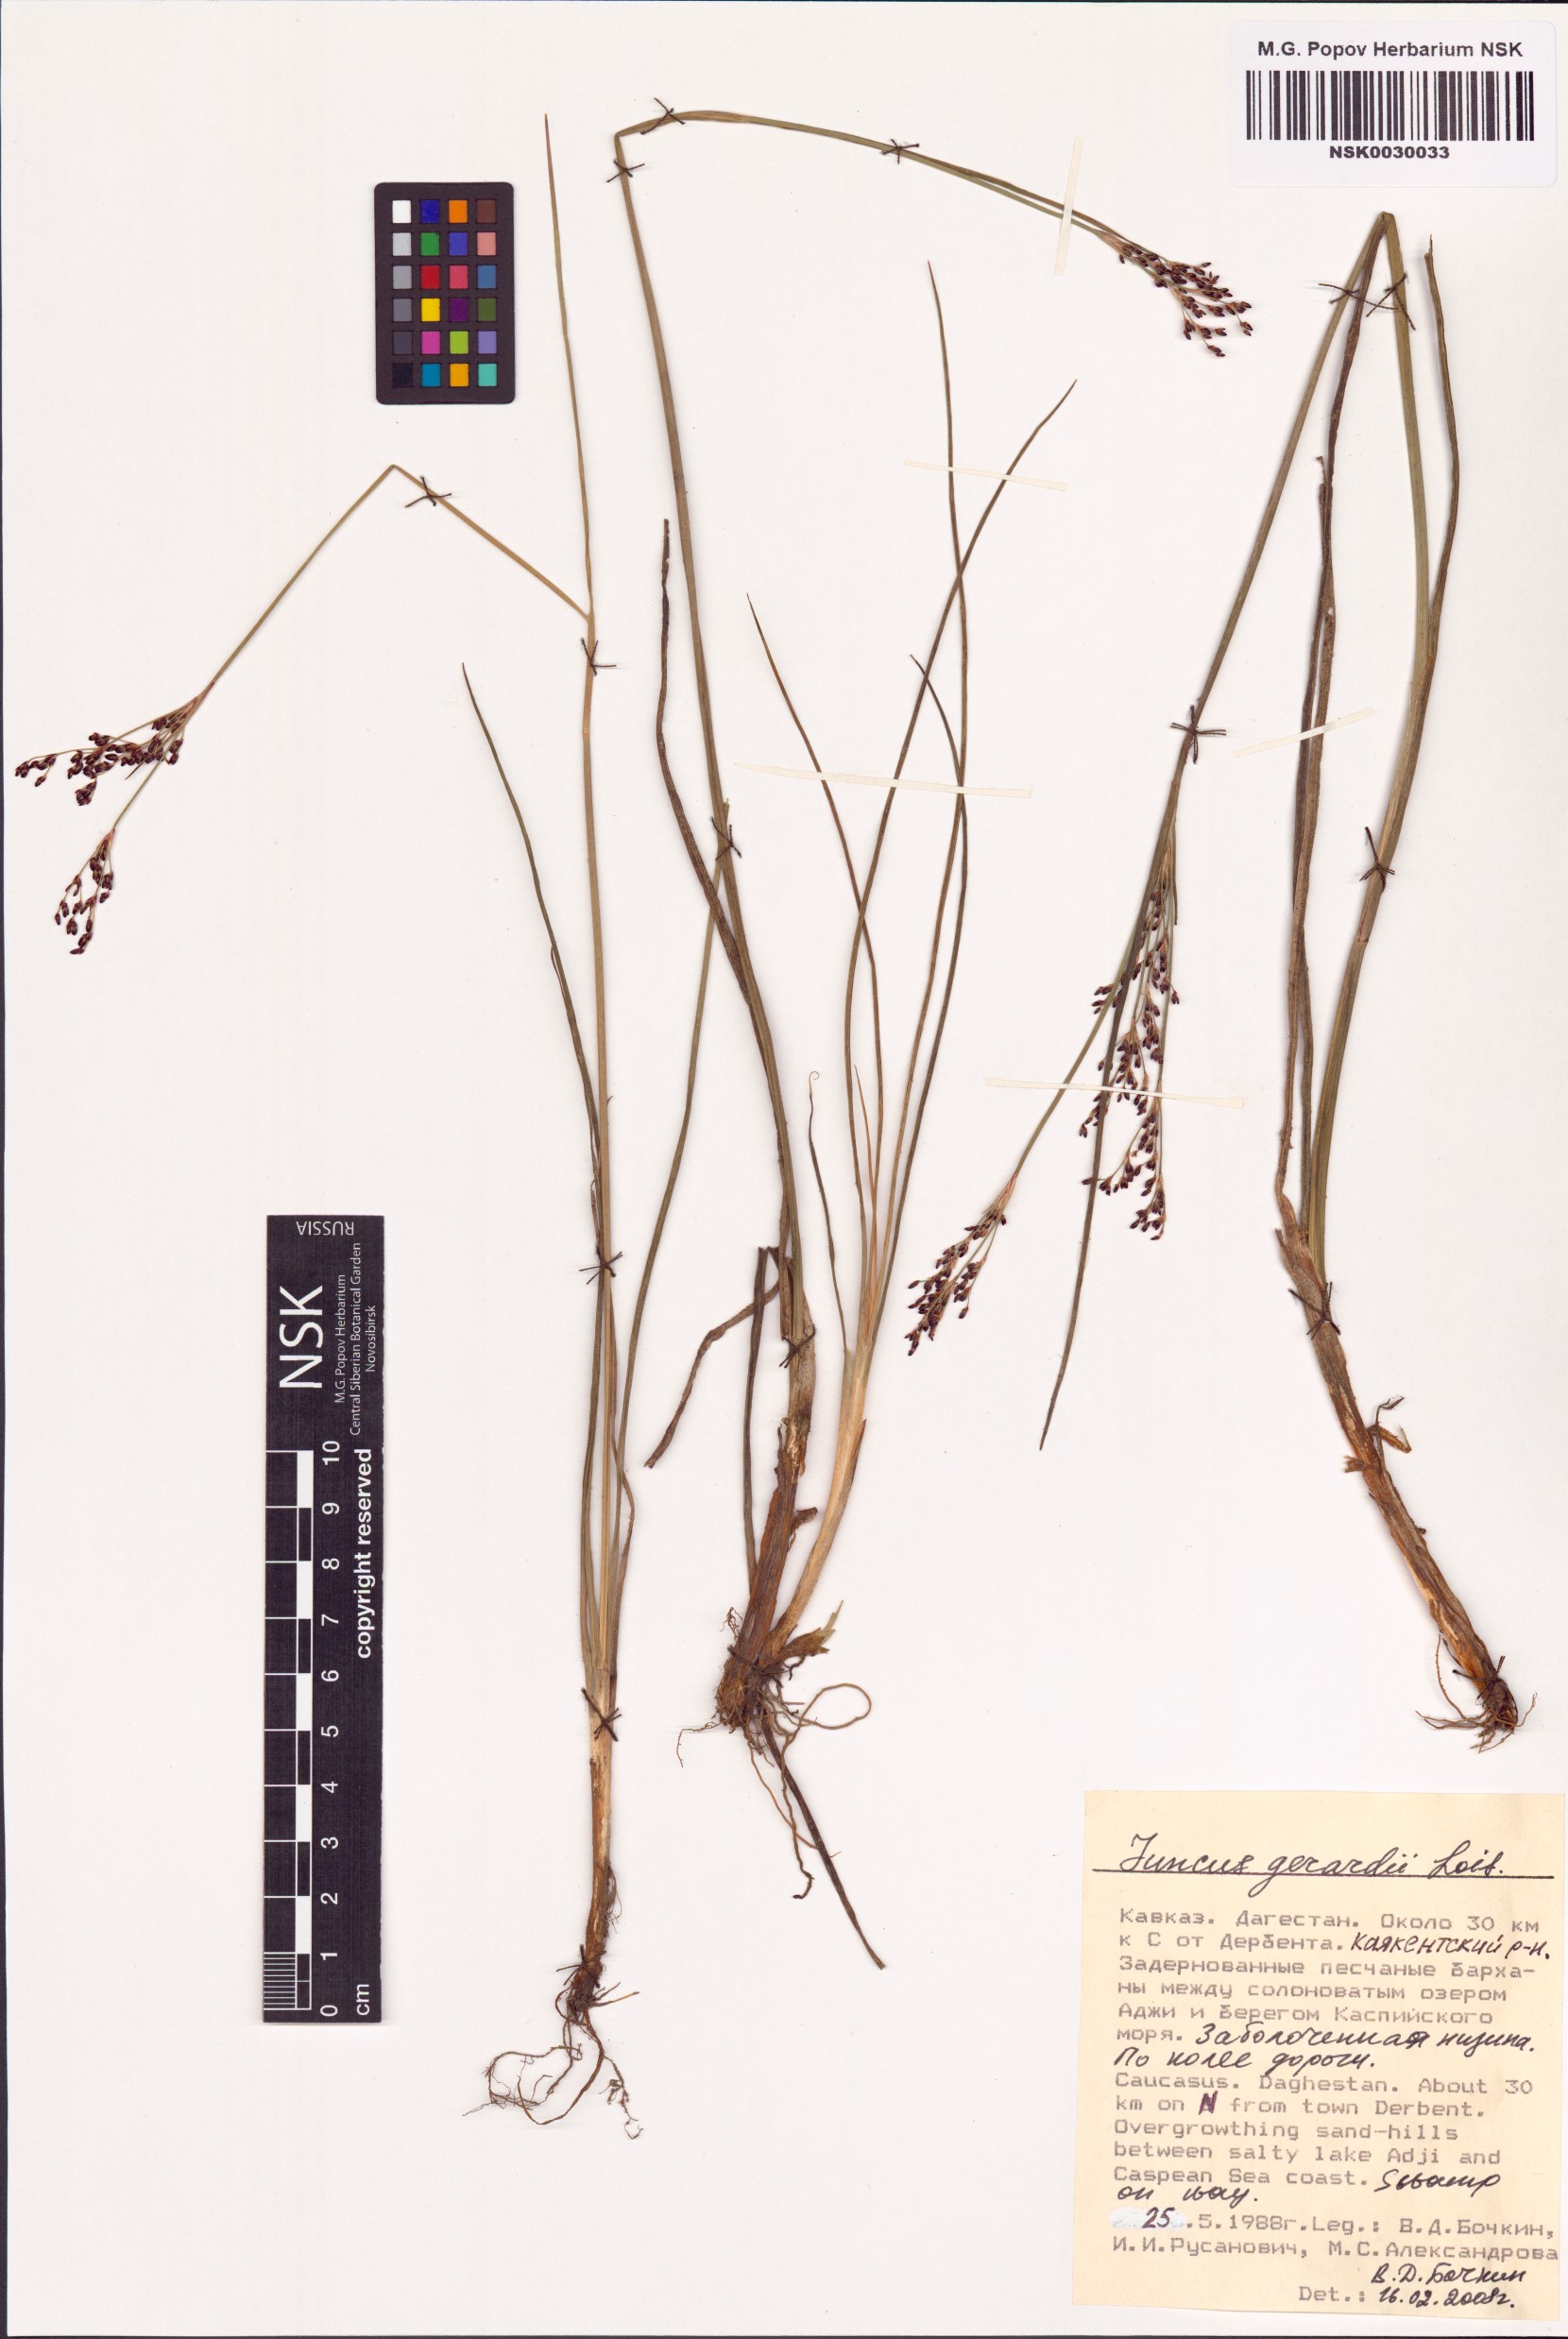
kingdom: Plantae
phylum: Tracheophyta
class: Liliopsida
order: Poales
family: Juncaceae
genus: Juncus
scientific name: Juncus gerardi
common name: Saltmarsh rush
